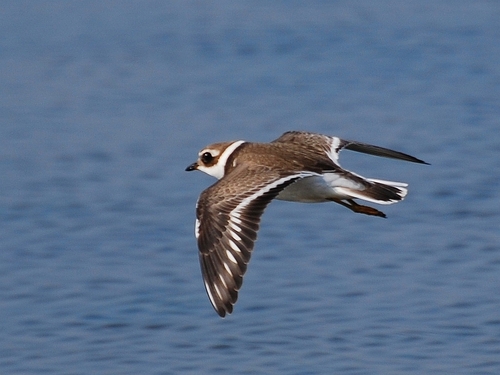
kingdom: Animalia
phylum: Chordata
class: Aves
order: Charadriiformes
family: Charadriidae
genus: Charadrius
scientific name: Charadrius hiaticula
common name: Common ringed plover
